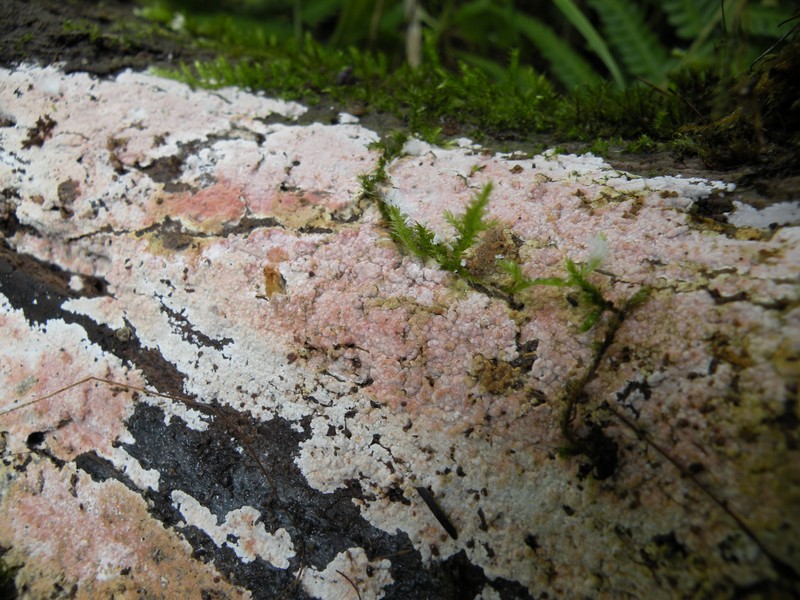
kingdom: Fungi
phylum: Basidiomycota
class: Agaricomycetes
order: Hymenochaetales
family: Rickenellaceae
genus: Odonticium
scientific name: Odonticium septocystidia
